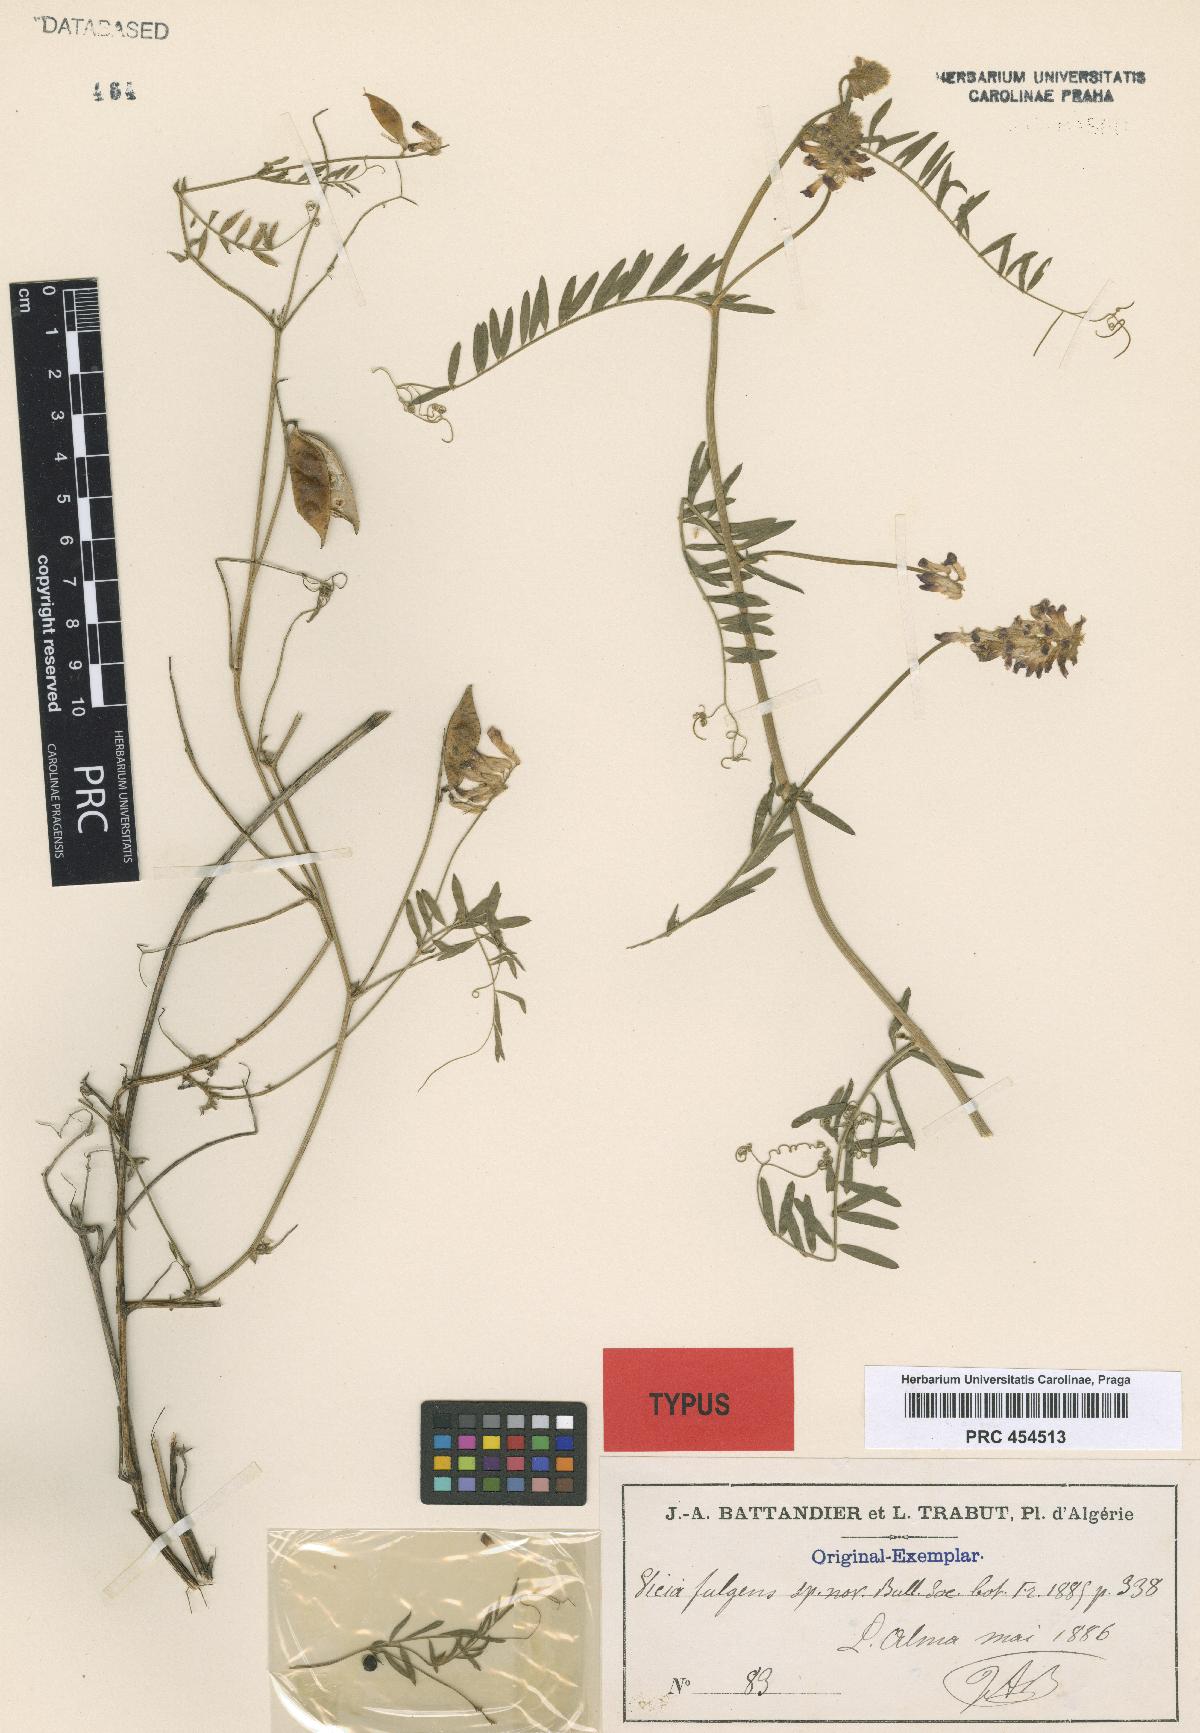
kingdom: Plantae
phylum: Tracheophyta
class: Magnoliopsida
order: Fabales
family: Fabaceae
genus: Vicia
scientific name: Vicia fulgens
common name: Scarlet vetch
